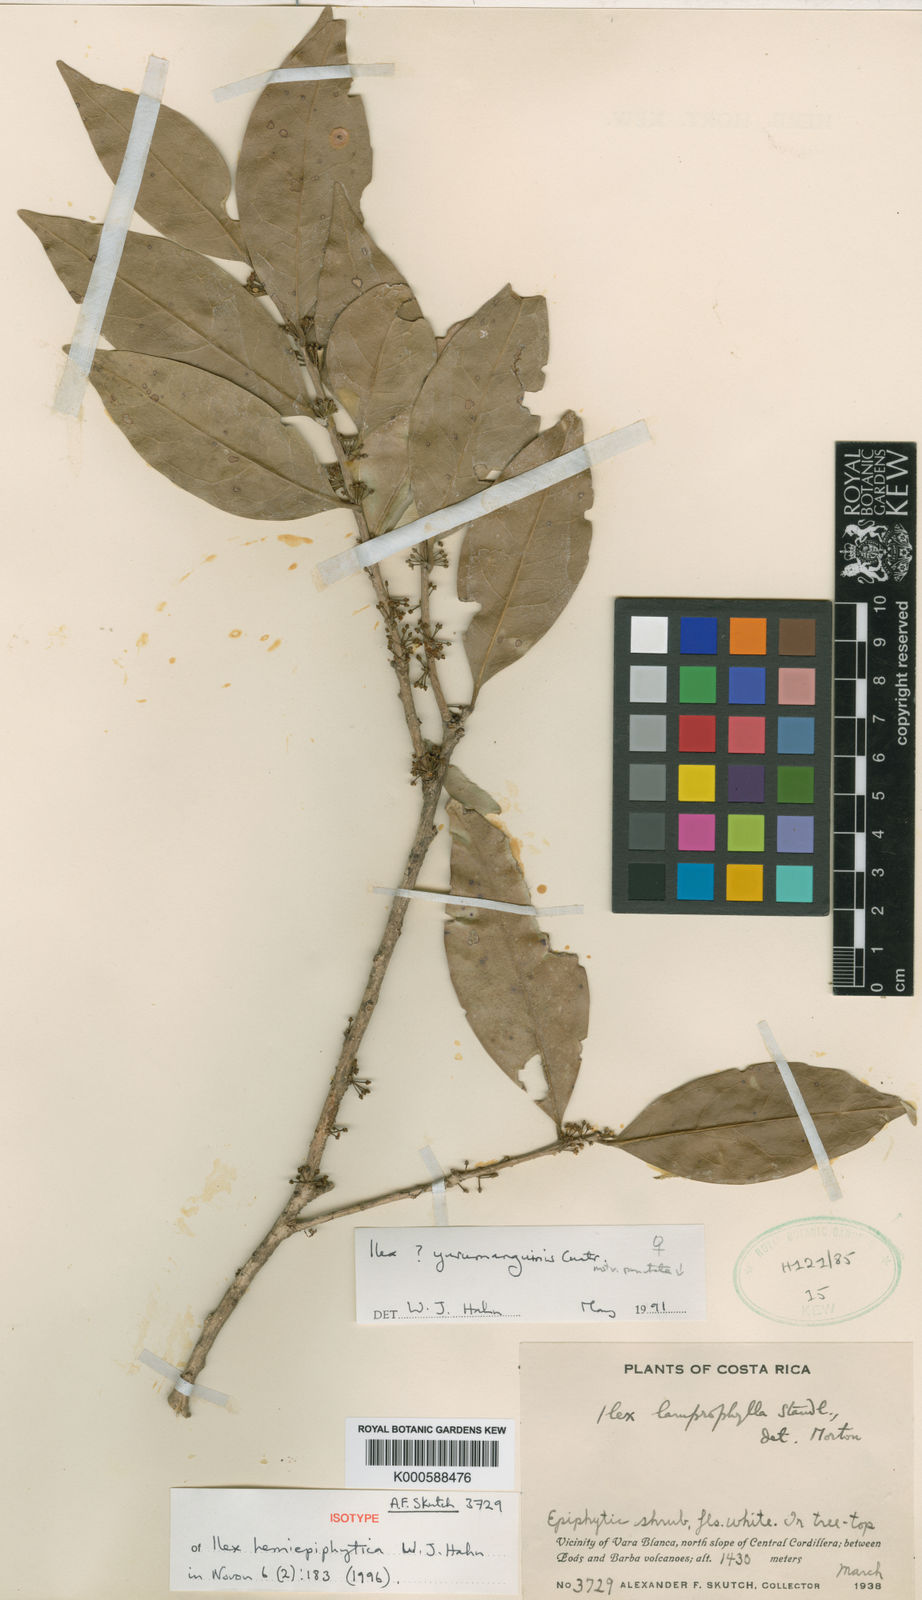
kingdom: Plantae
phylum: Tracheophyta
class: Magnoliopsida
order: Aquifoliales
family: Aquifoliaceae
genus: Ilex
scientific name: Ilex hemiepiphytica
